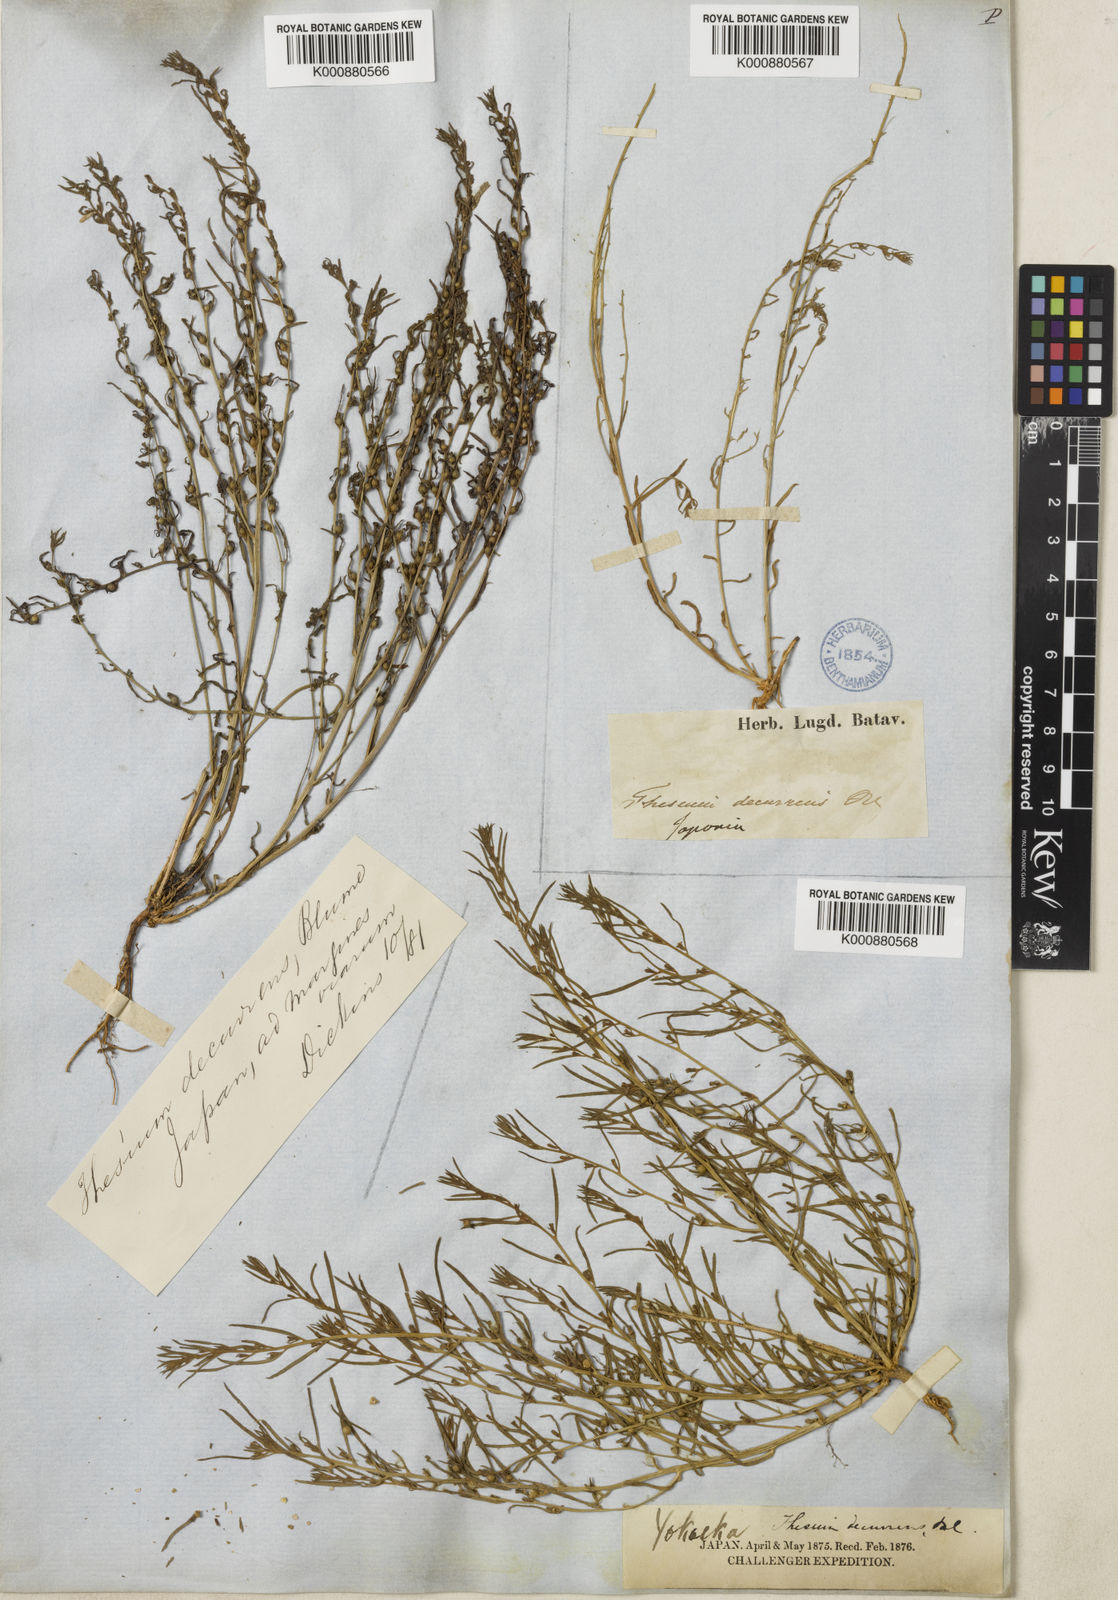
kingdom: Plantae
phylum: Tracheophyta
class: Magnoliopsida
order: Santalales
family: Thesiaceae
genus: Thesium
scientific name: Thesium chinense
